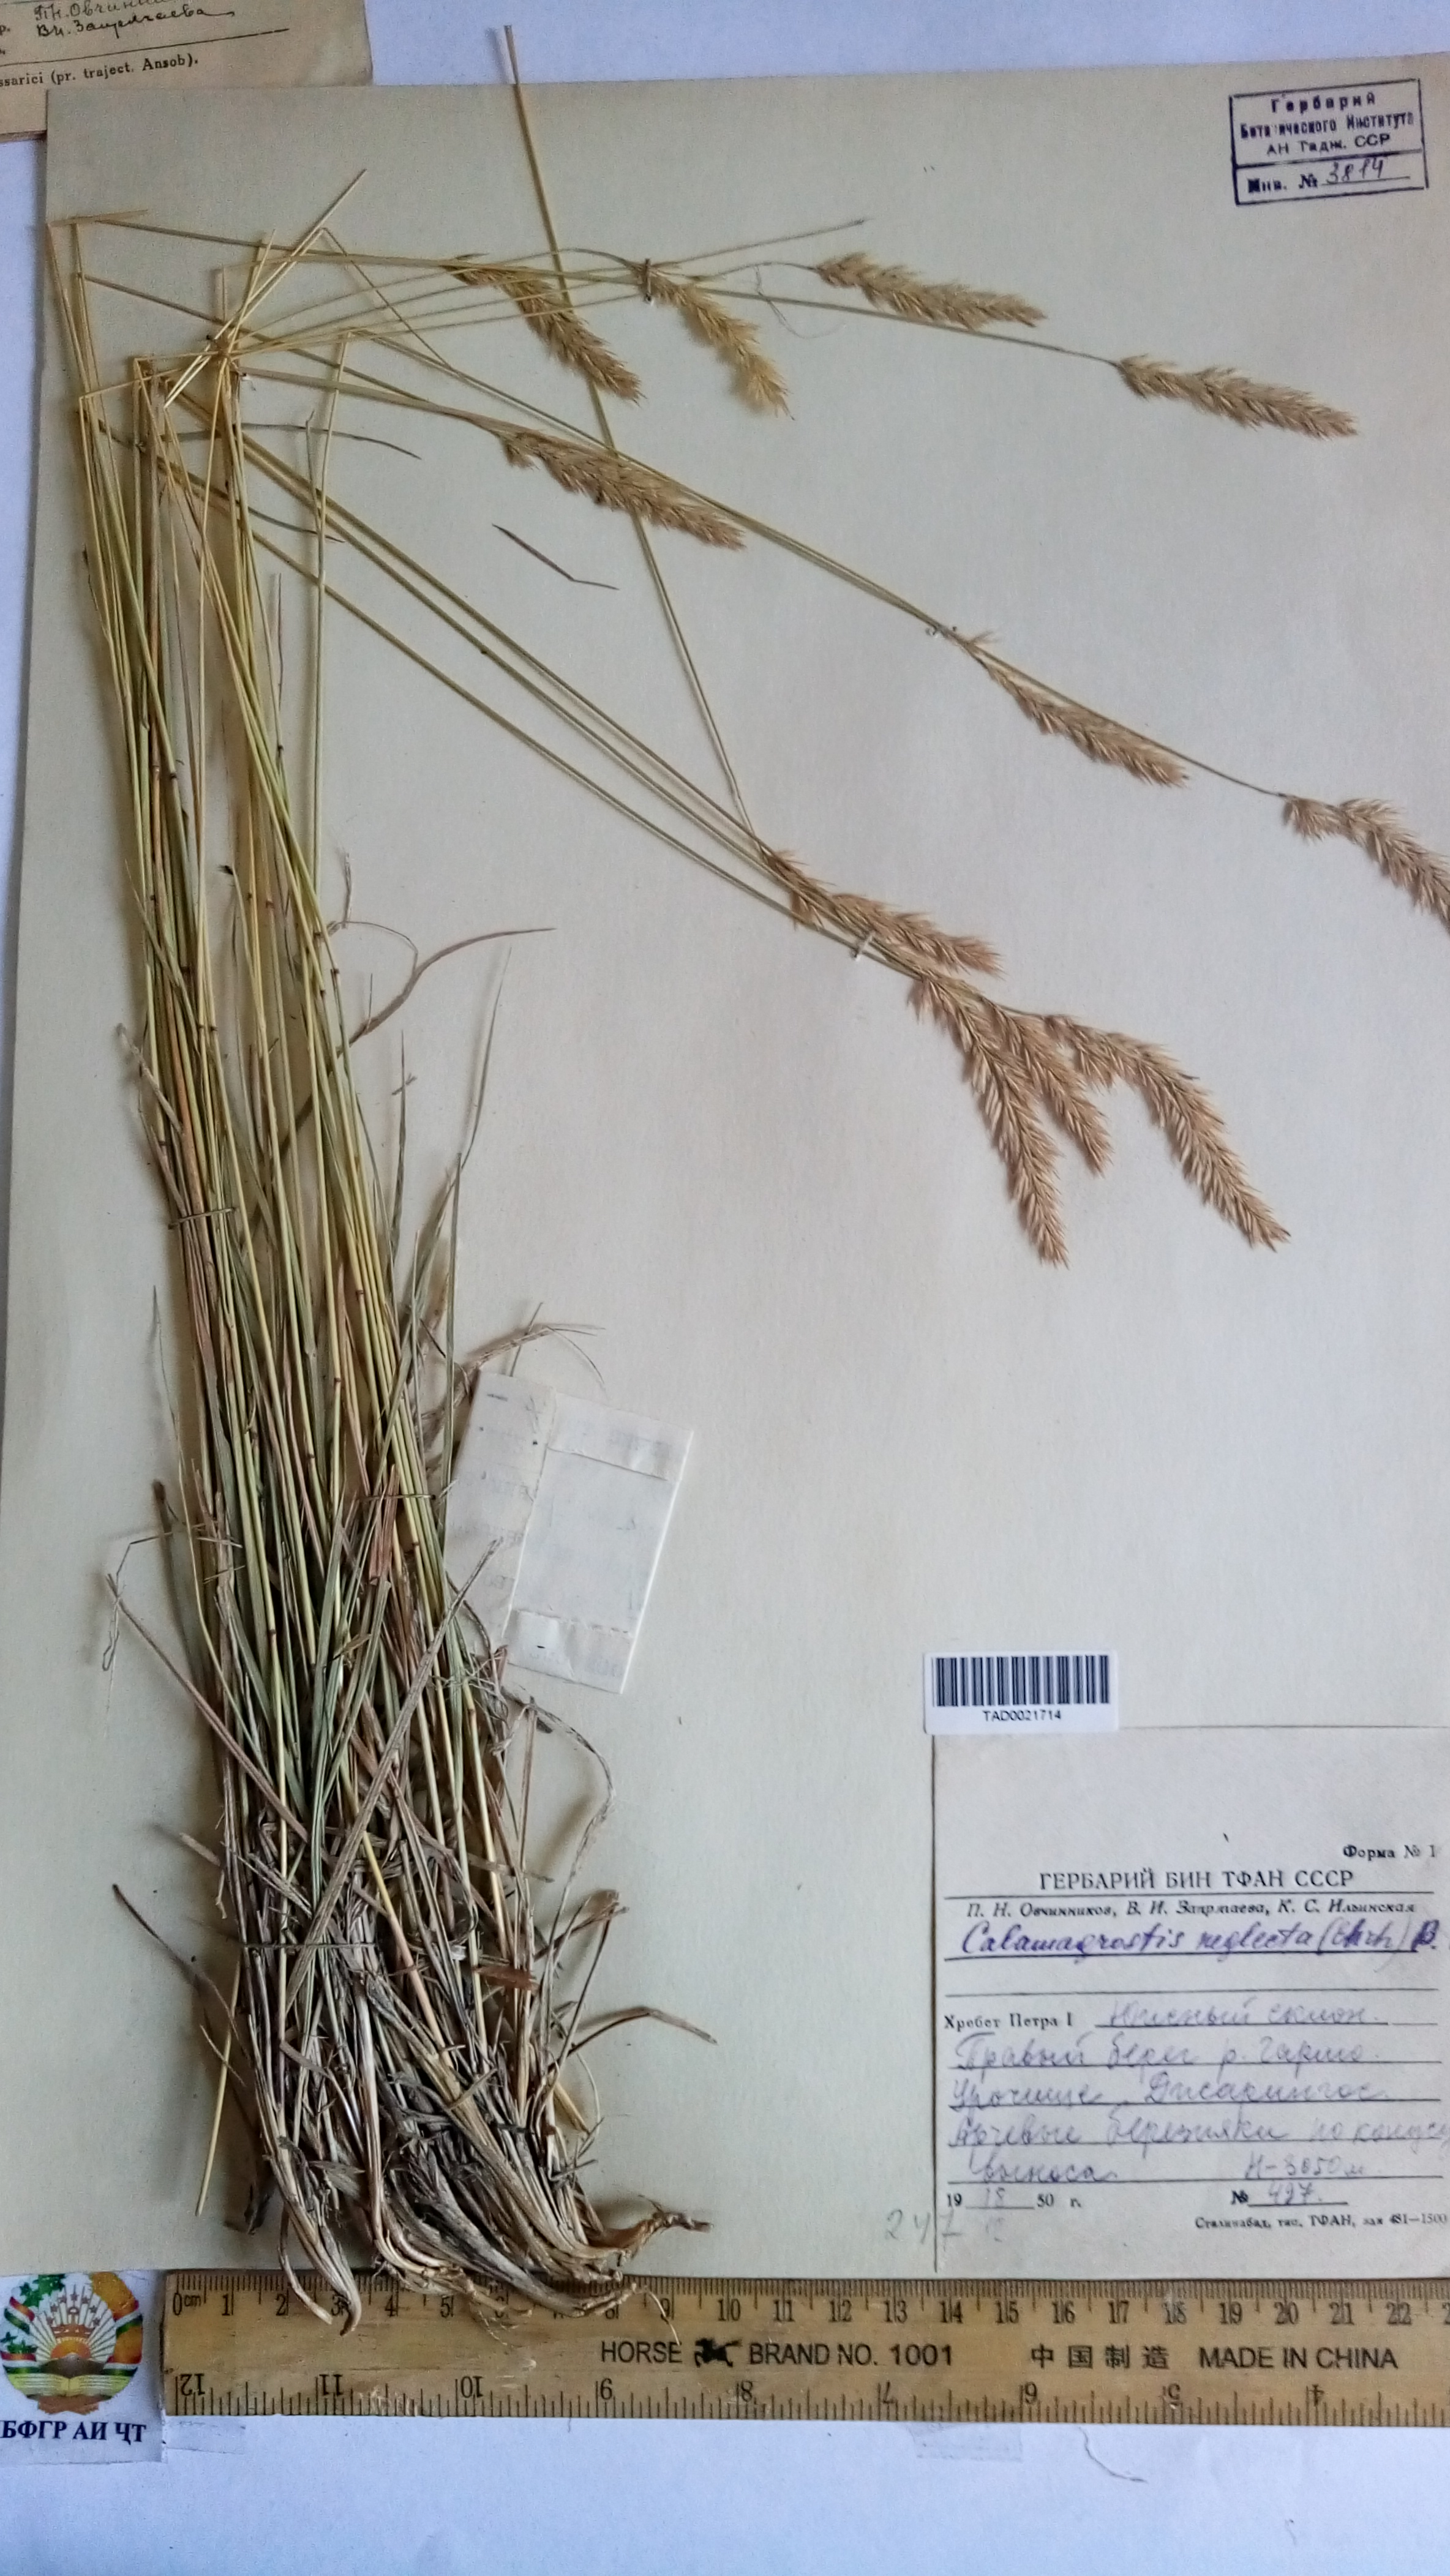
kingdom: Plantae
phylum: Tracheophyta
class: Liliopsida
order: Poales
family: Poaceae
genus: Achnatherum
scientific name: Achnatherum calamagrostis
